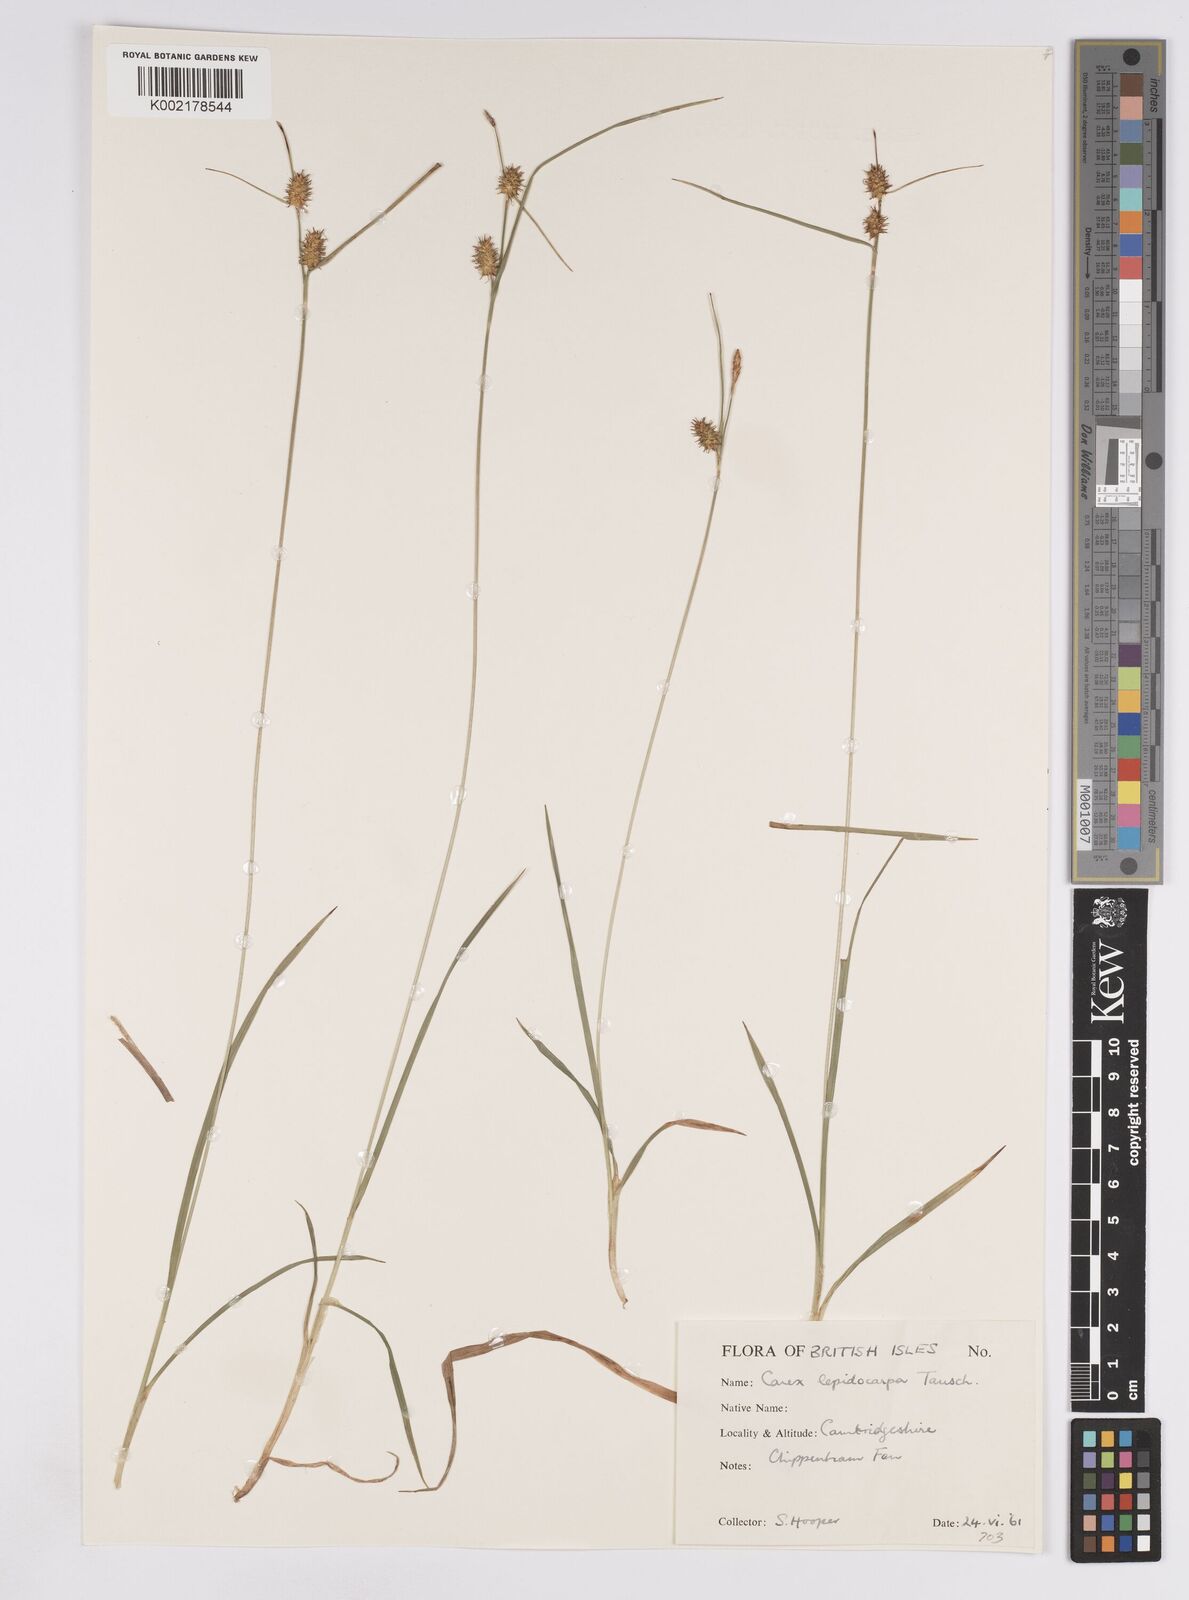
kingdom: Plantae
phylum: Tracheophyta
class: Liliopsida
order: Poales
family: Cyperaceae
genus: Carex
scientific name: Carex lepidocarpa
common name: Long-stalked yellow-sedge
